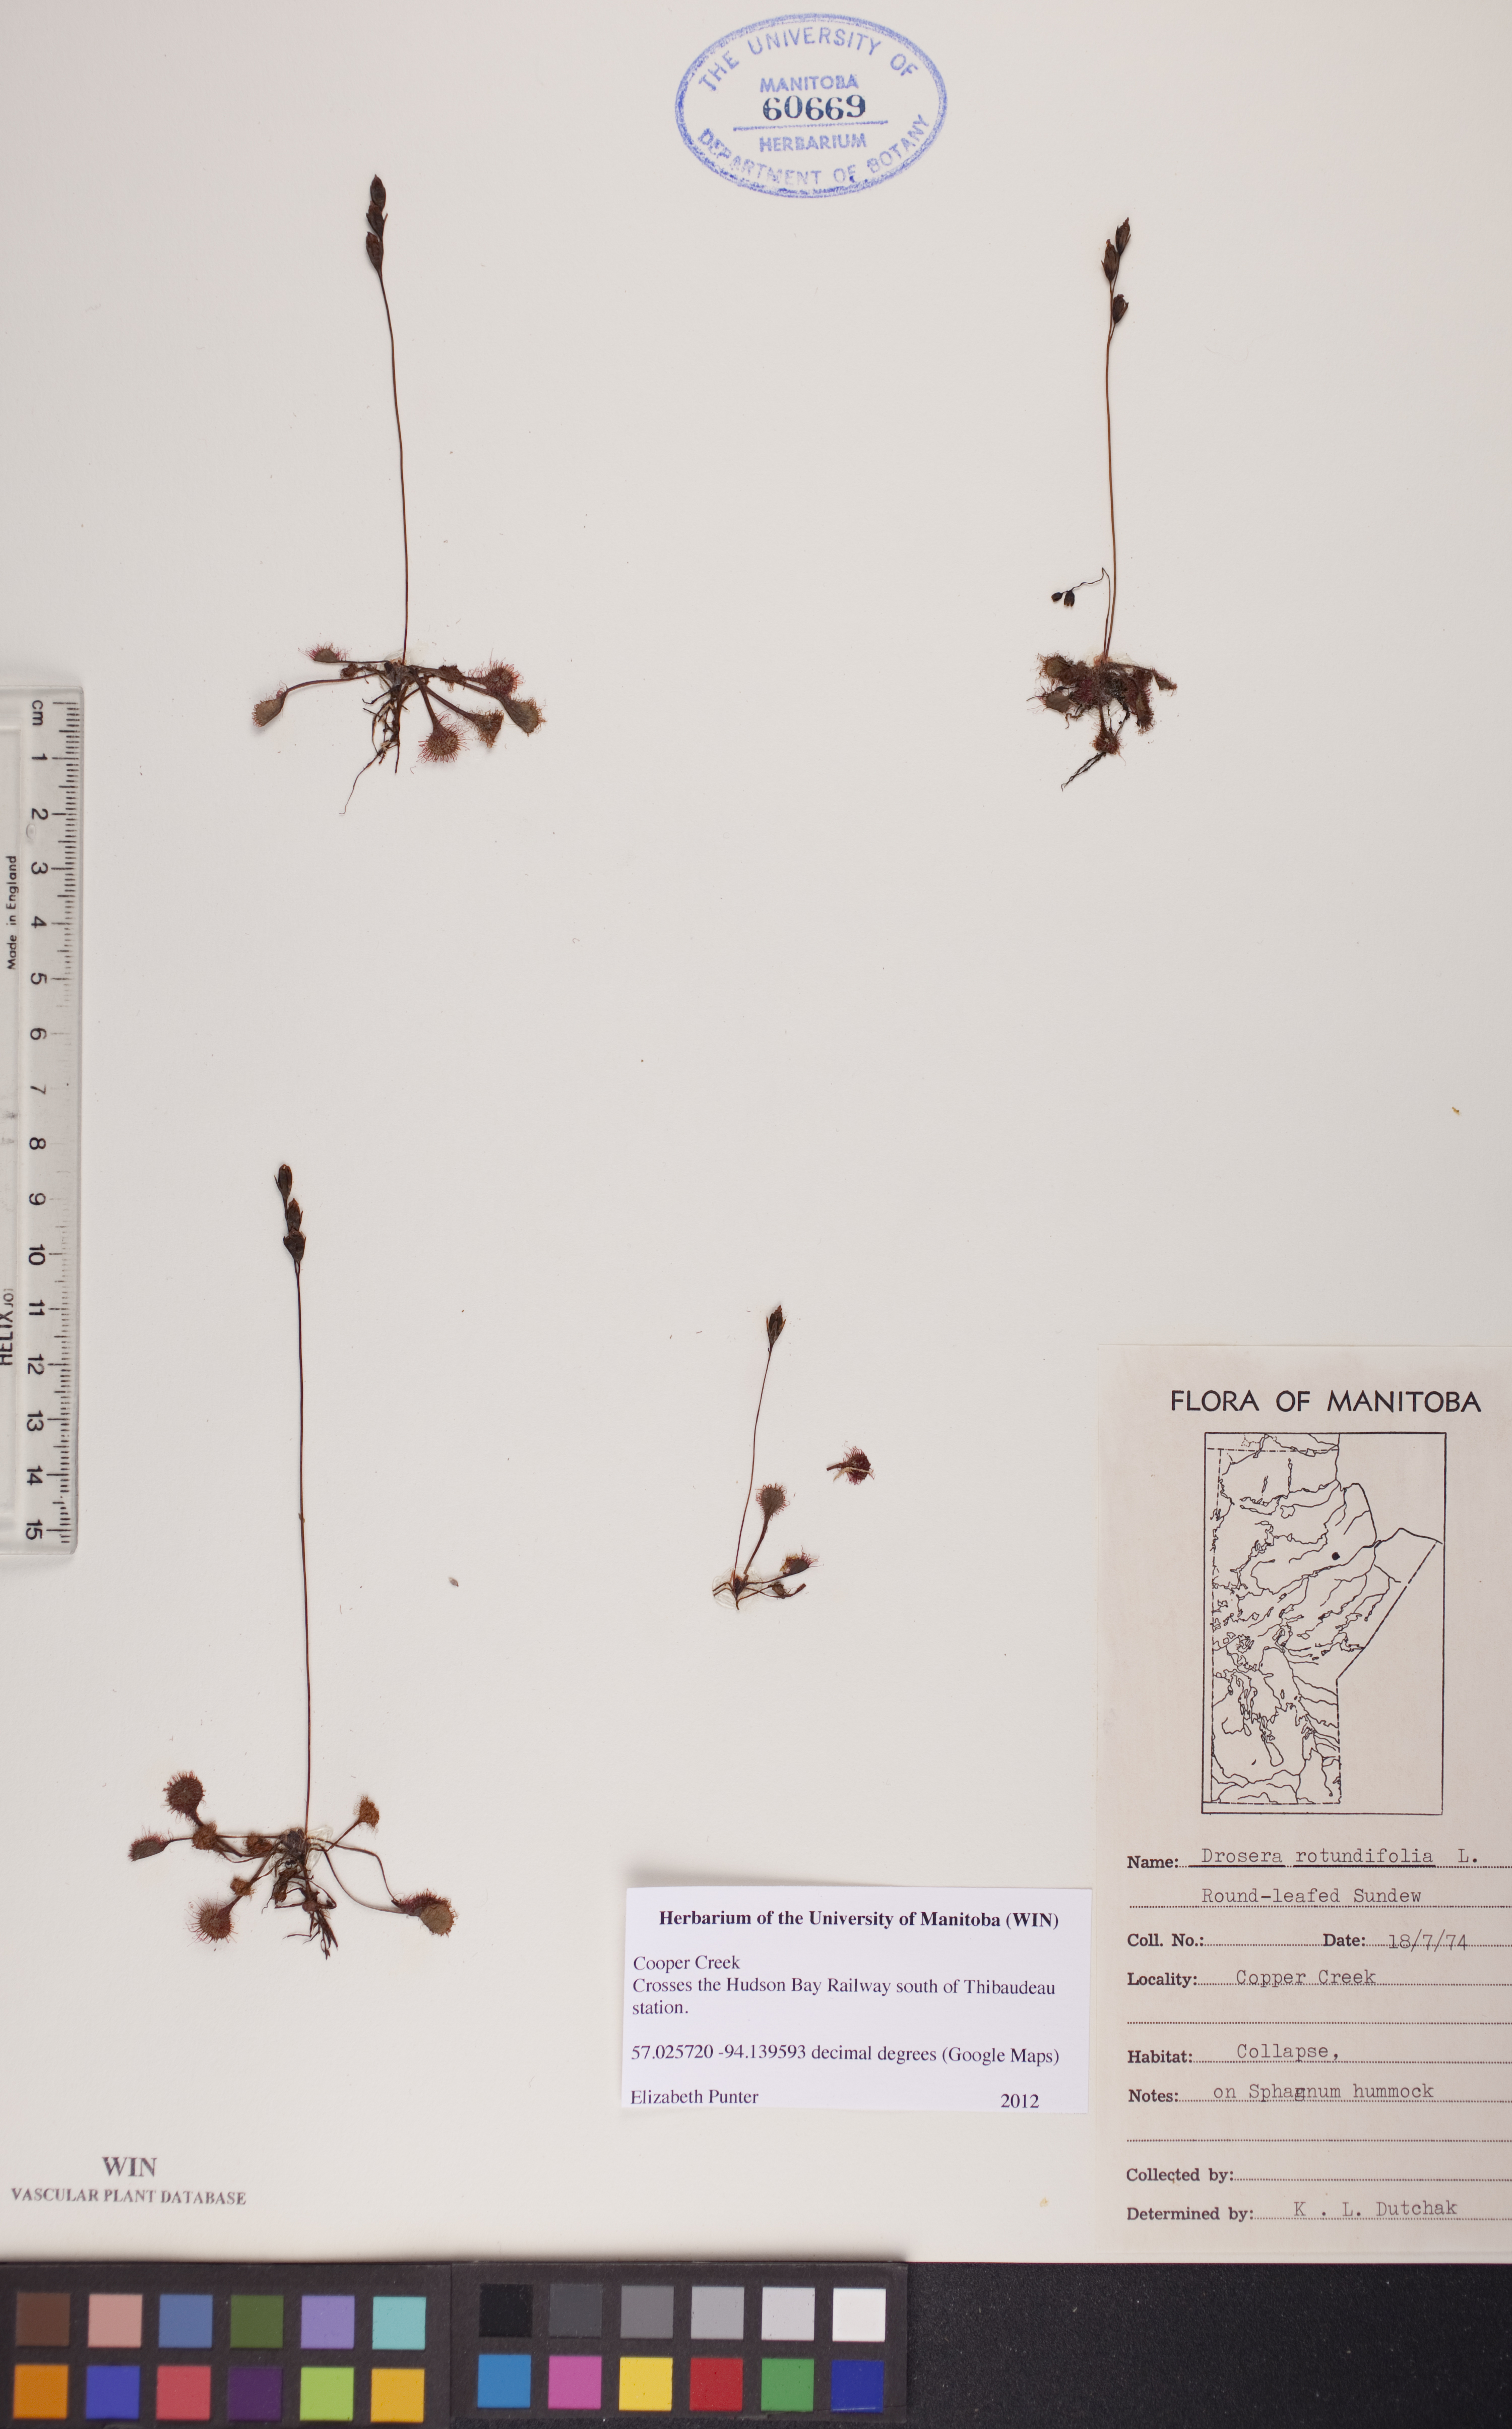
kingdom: Plantae
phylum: Tracheophyta
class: Magnoliopsida
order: Caryophyllales
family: Droseraceae
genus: Drosera
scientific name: Drosera rotundifolia
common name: Round-leaved sundew
